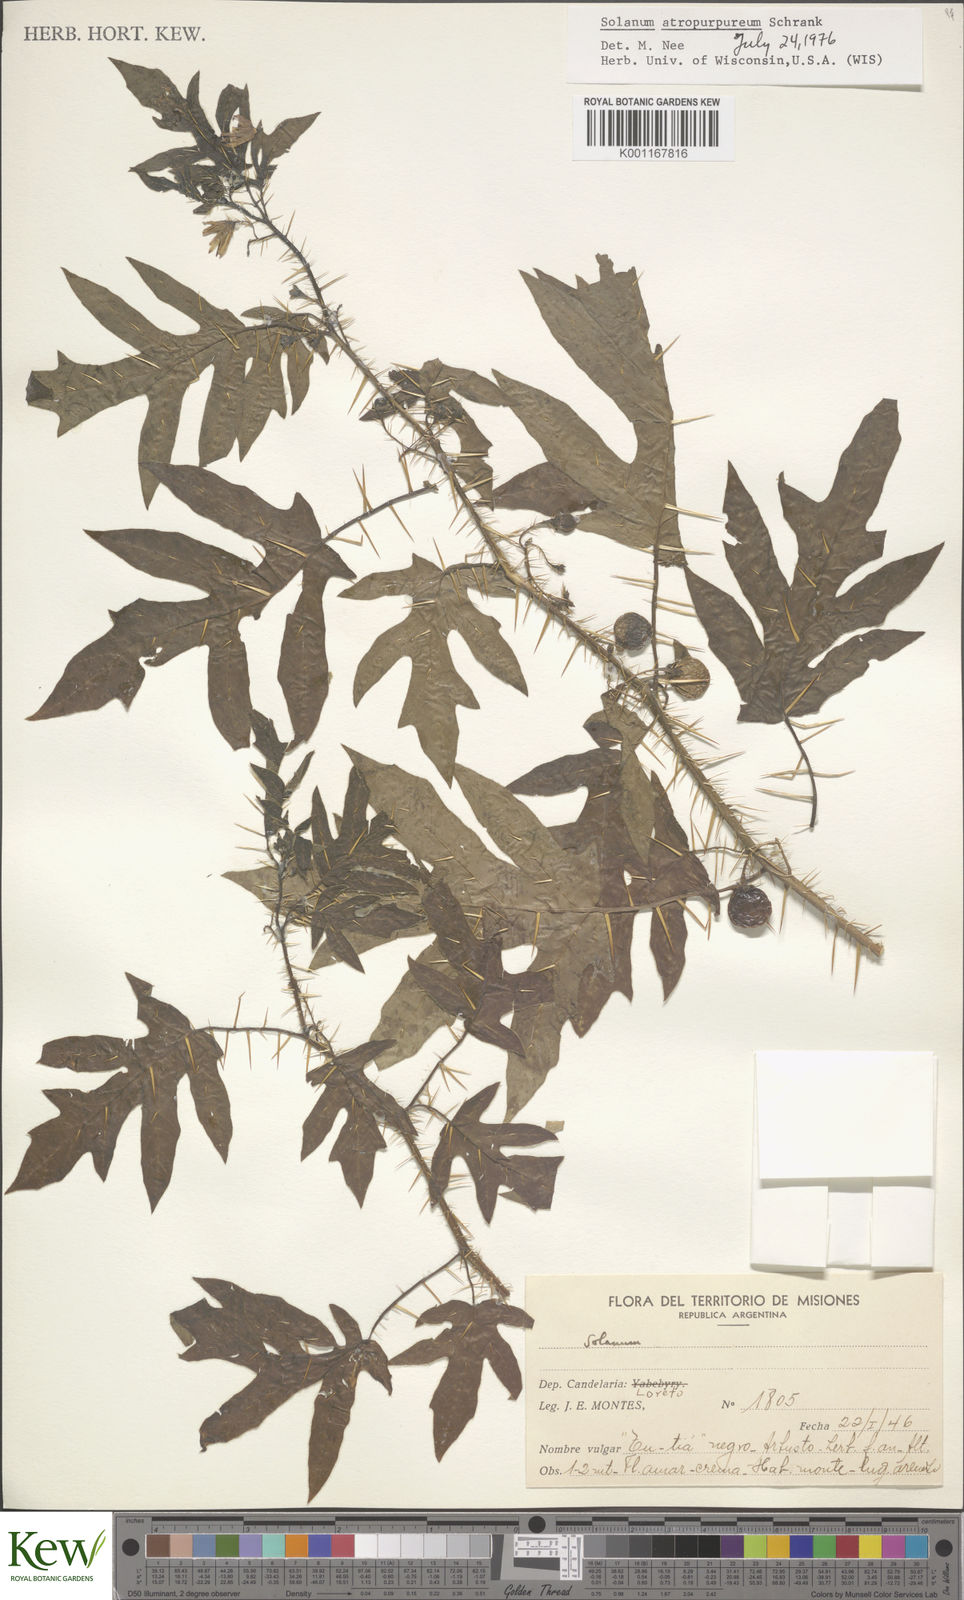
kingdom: Plantae
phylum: Tracheophyta
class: Magnoliopsida
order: Solanales
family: Solanaceae
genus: Solanum
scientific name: Solanum atropurpureum
